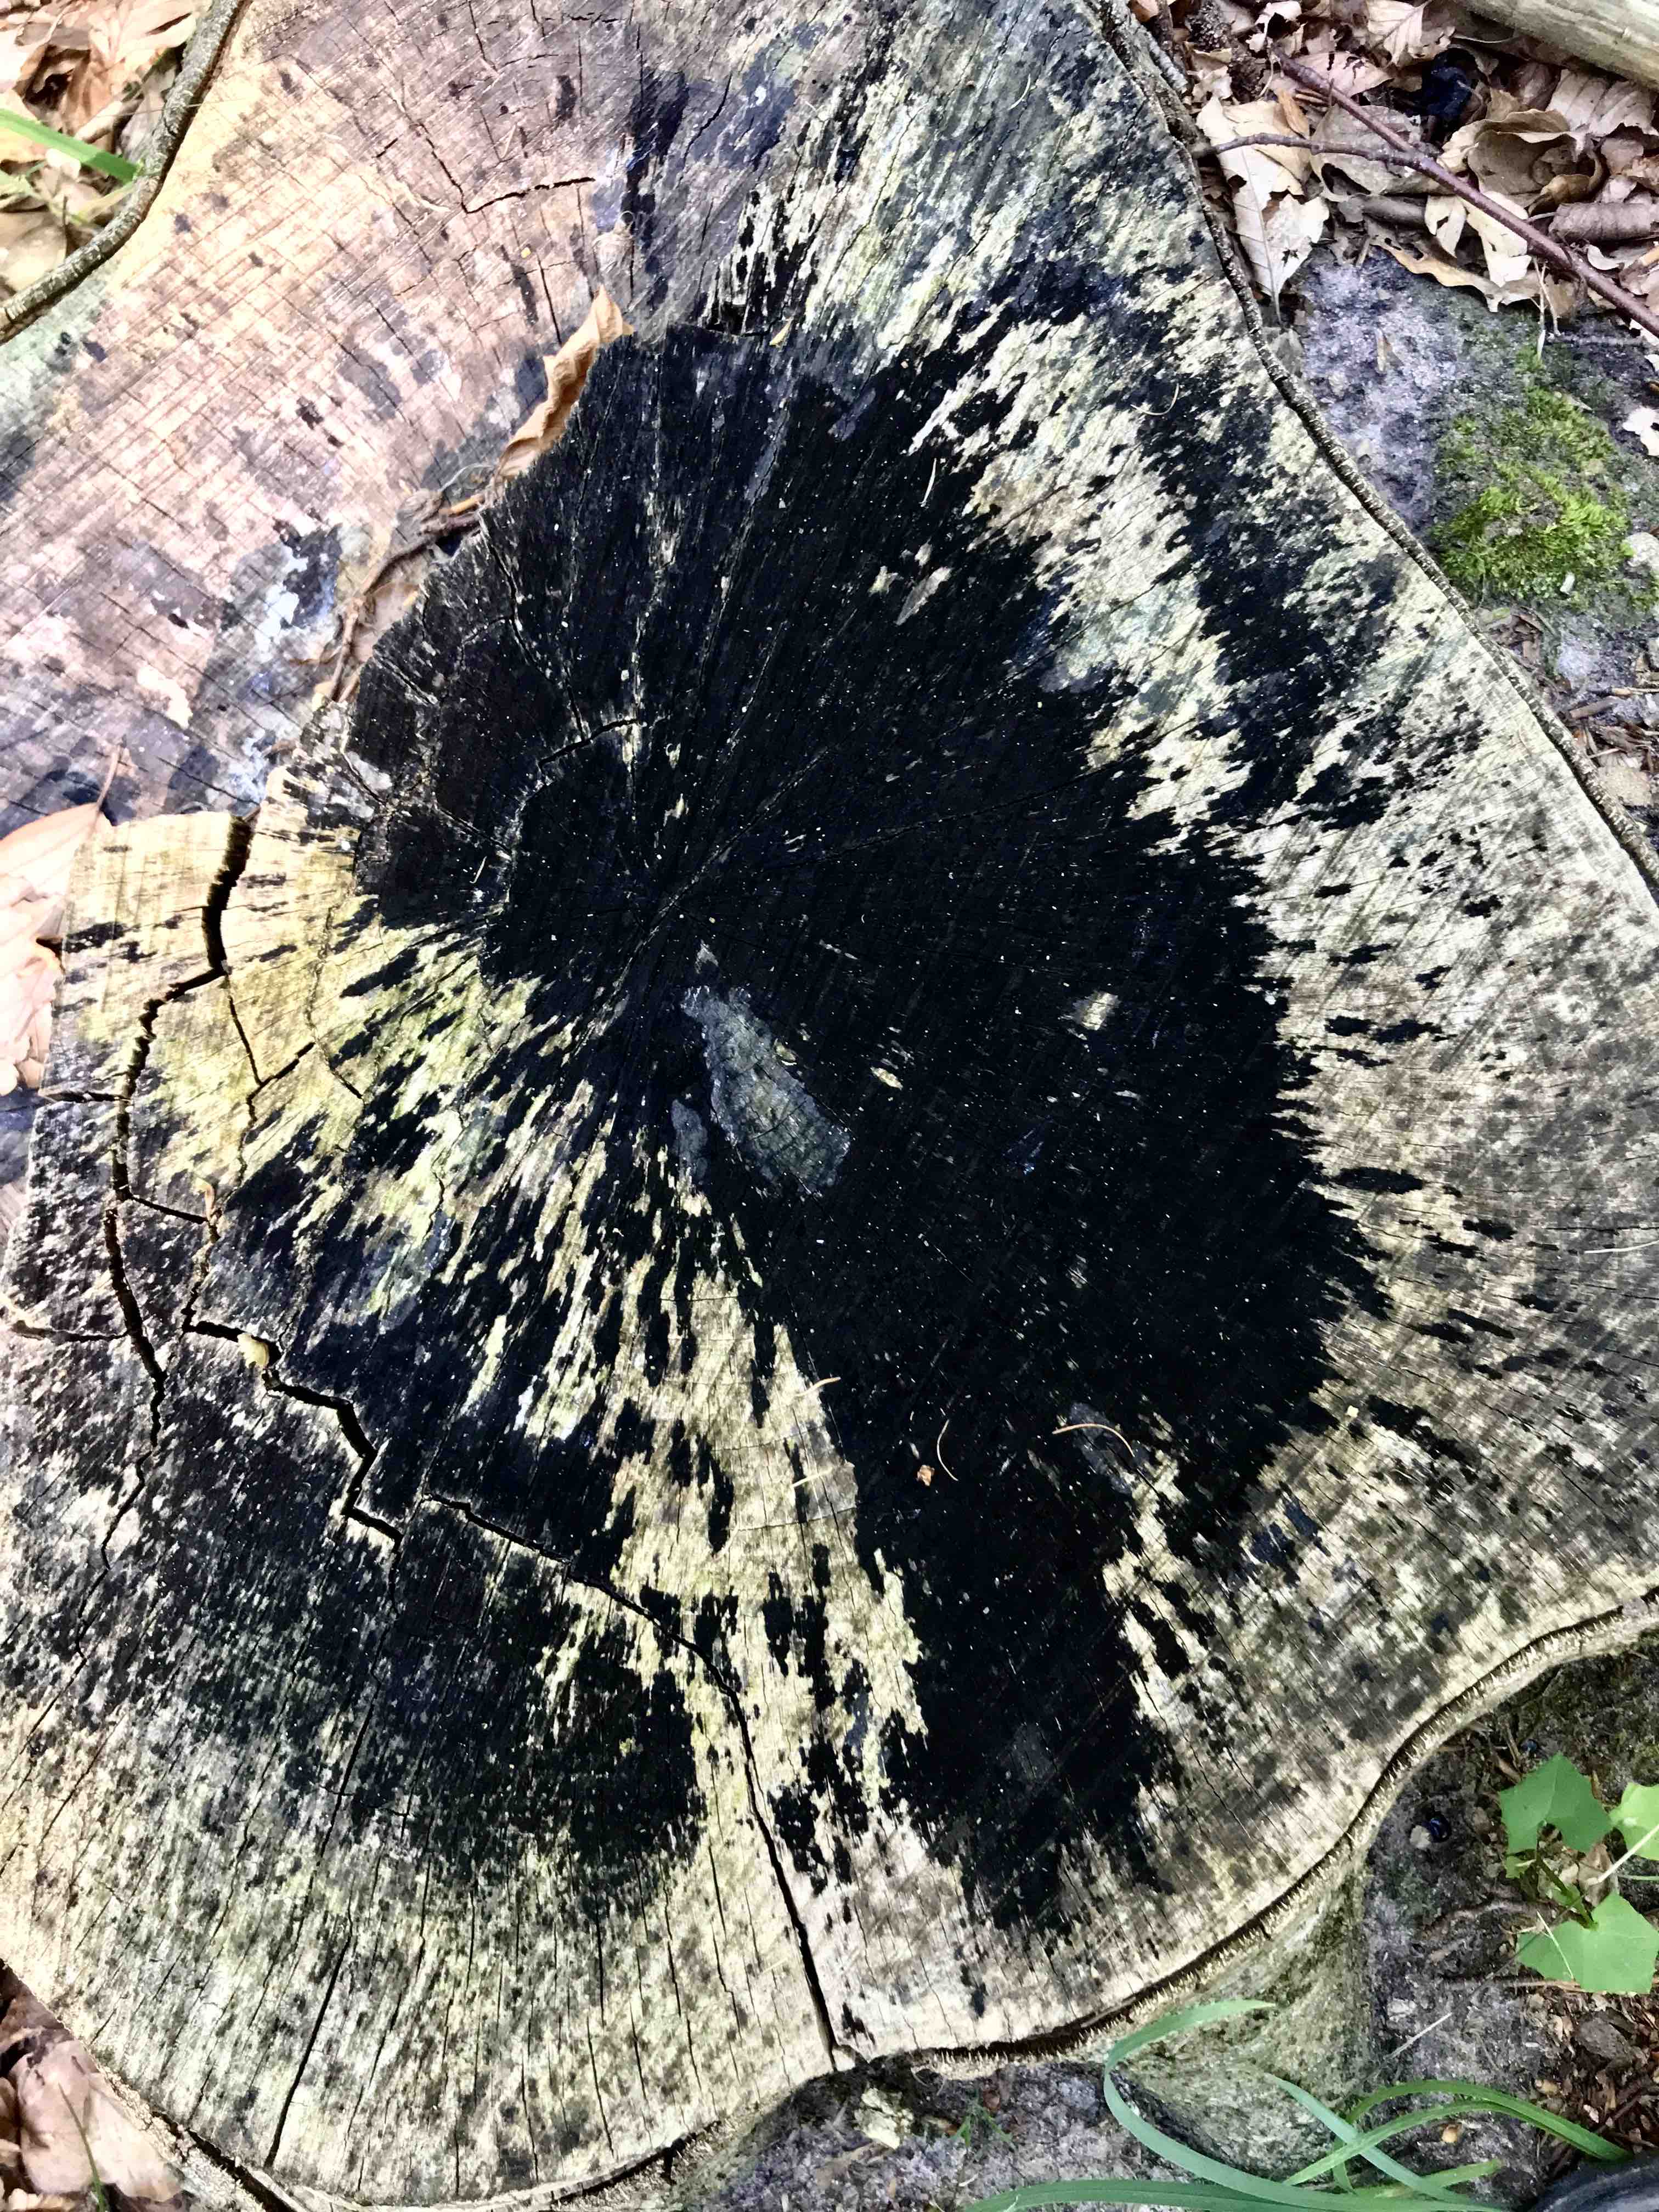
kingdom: Fungi
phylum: Ascomycota
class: Leotiomycetes
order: Helotiales
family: Helotiaceae
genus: Bispora
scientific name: Bispora pallescens
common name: måtte-snitskive
